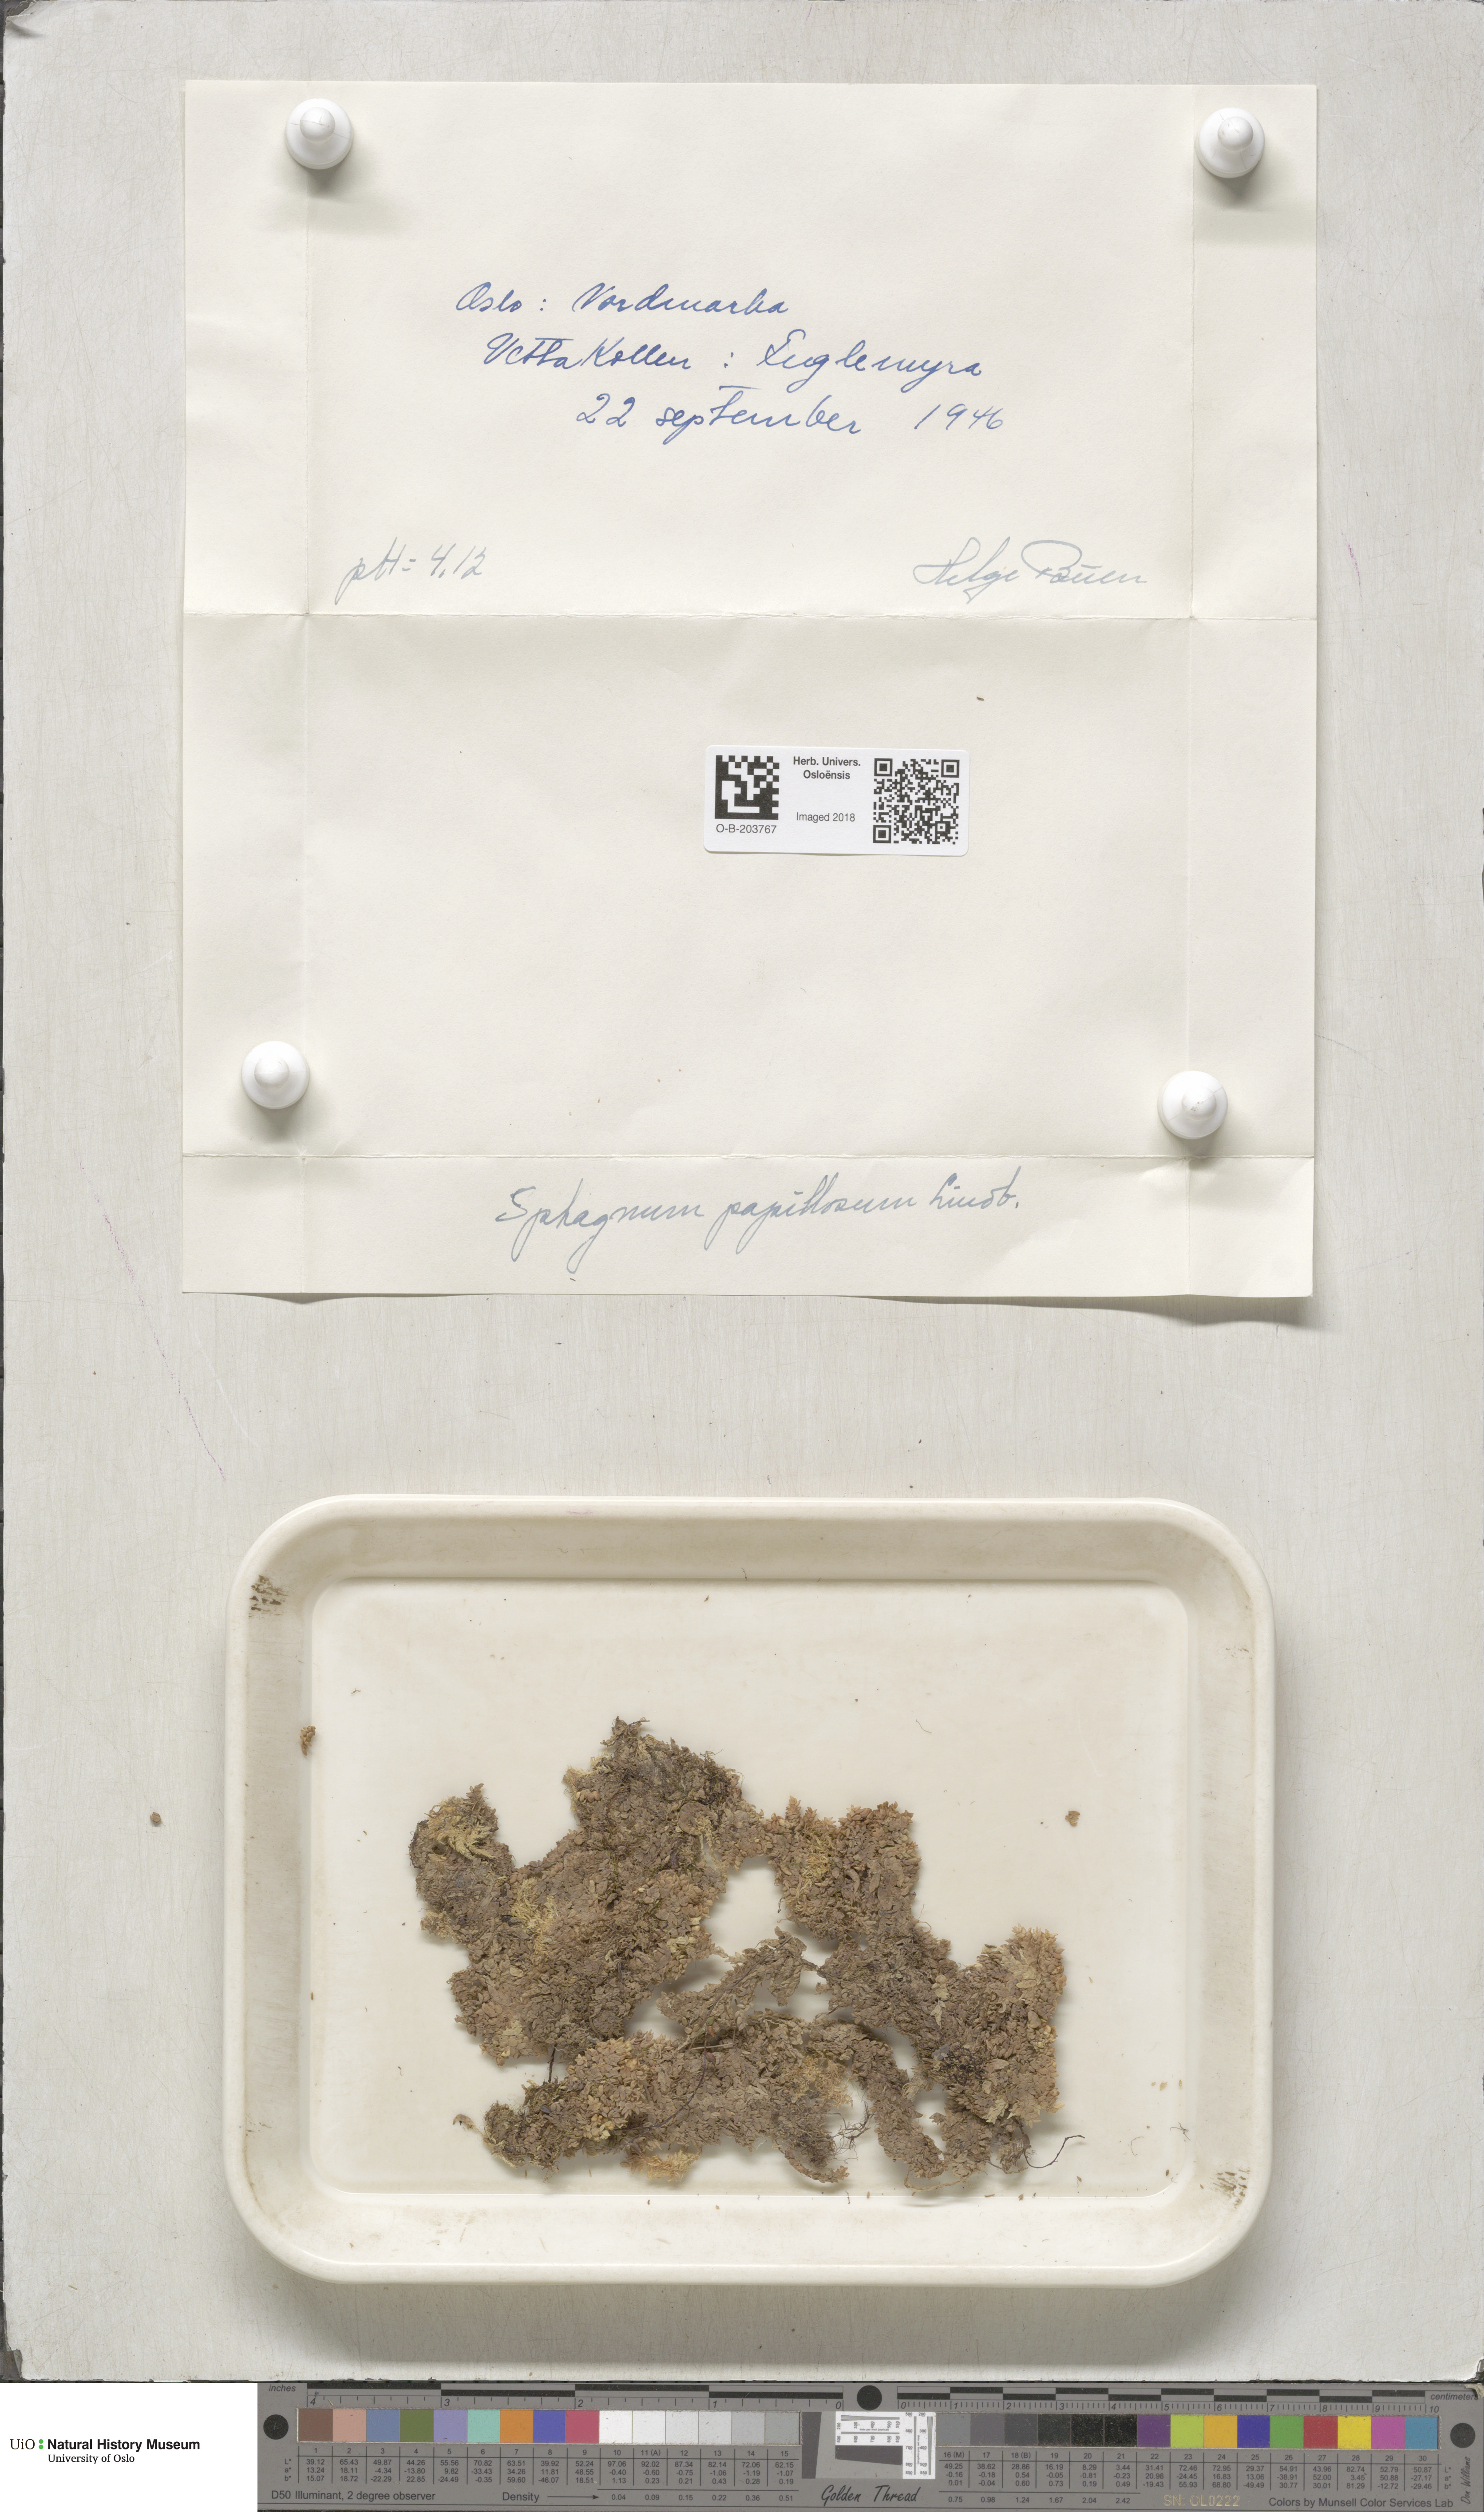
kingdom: Plantae
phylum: Bryophyta
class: Sphagnopsida
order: Sphagnales
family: Sphagnaceae
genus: Sphagnum
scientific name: Sphagnum papillosum
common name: Papillose peat moss
